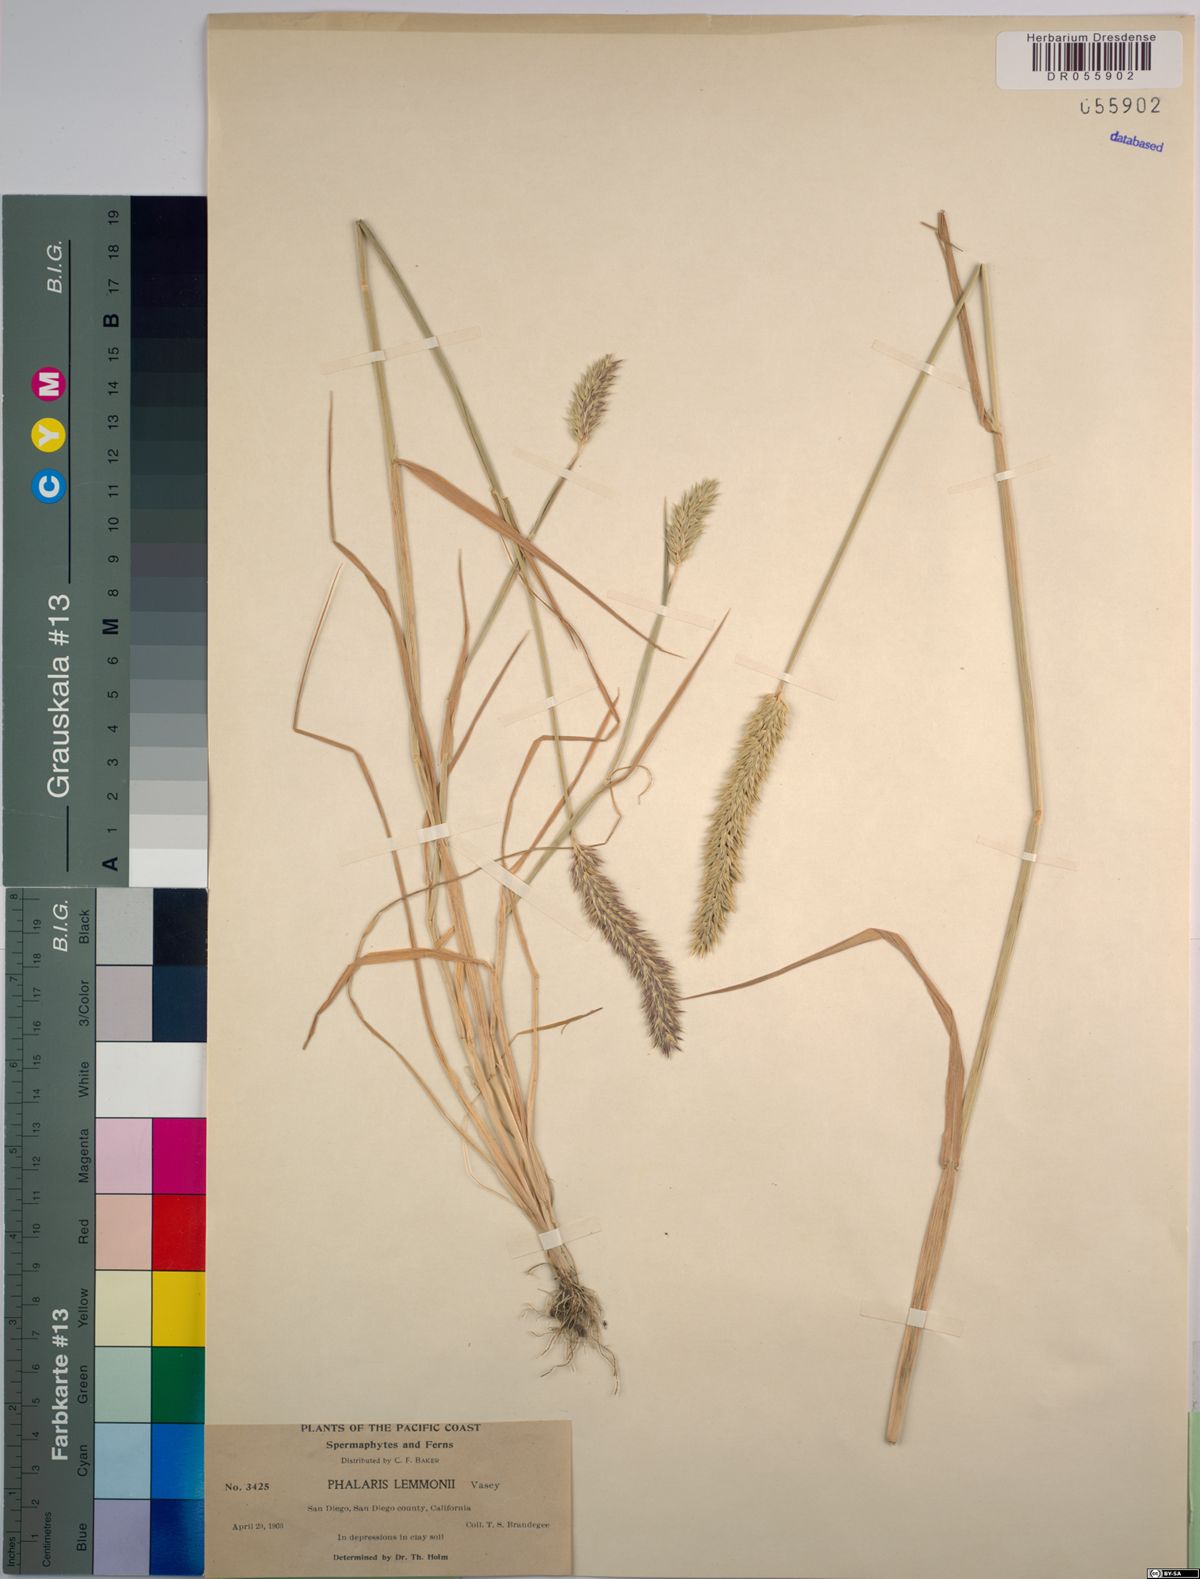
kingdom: Plantae
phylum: Tracheophyta
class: Liliopsida
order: Poales
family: Poaceae
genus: Phalaris
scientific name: Phalaris lemmonii
